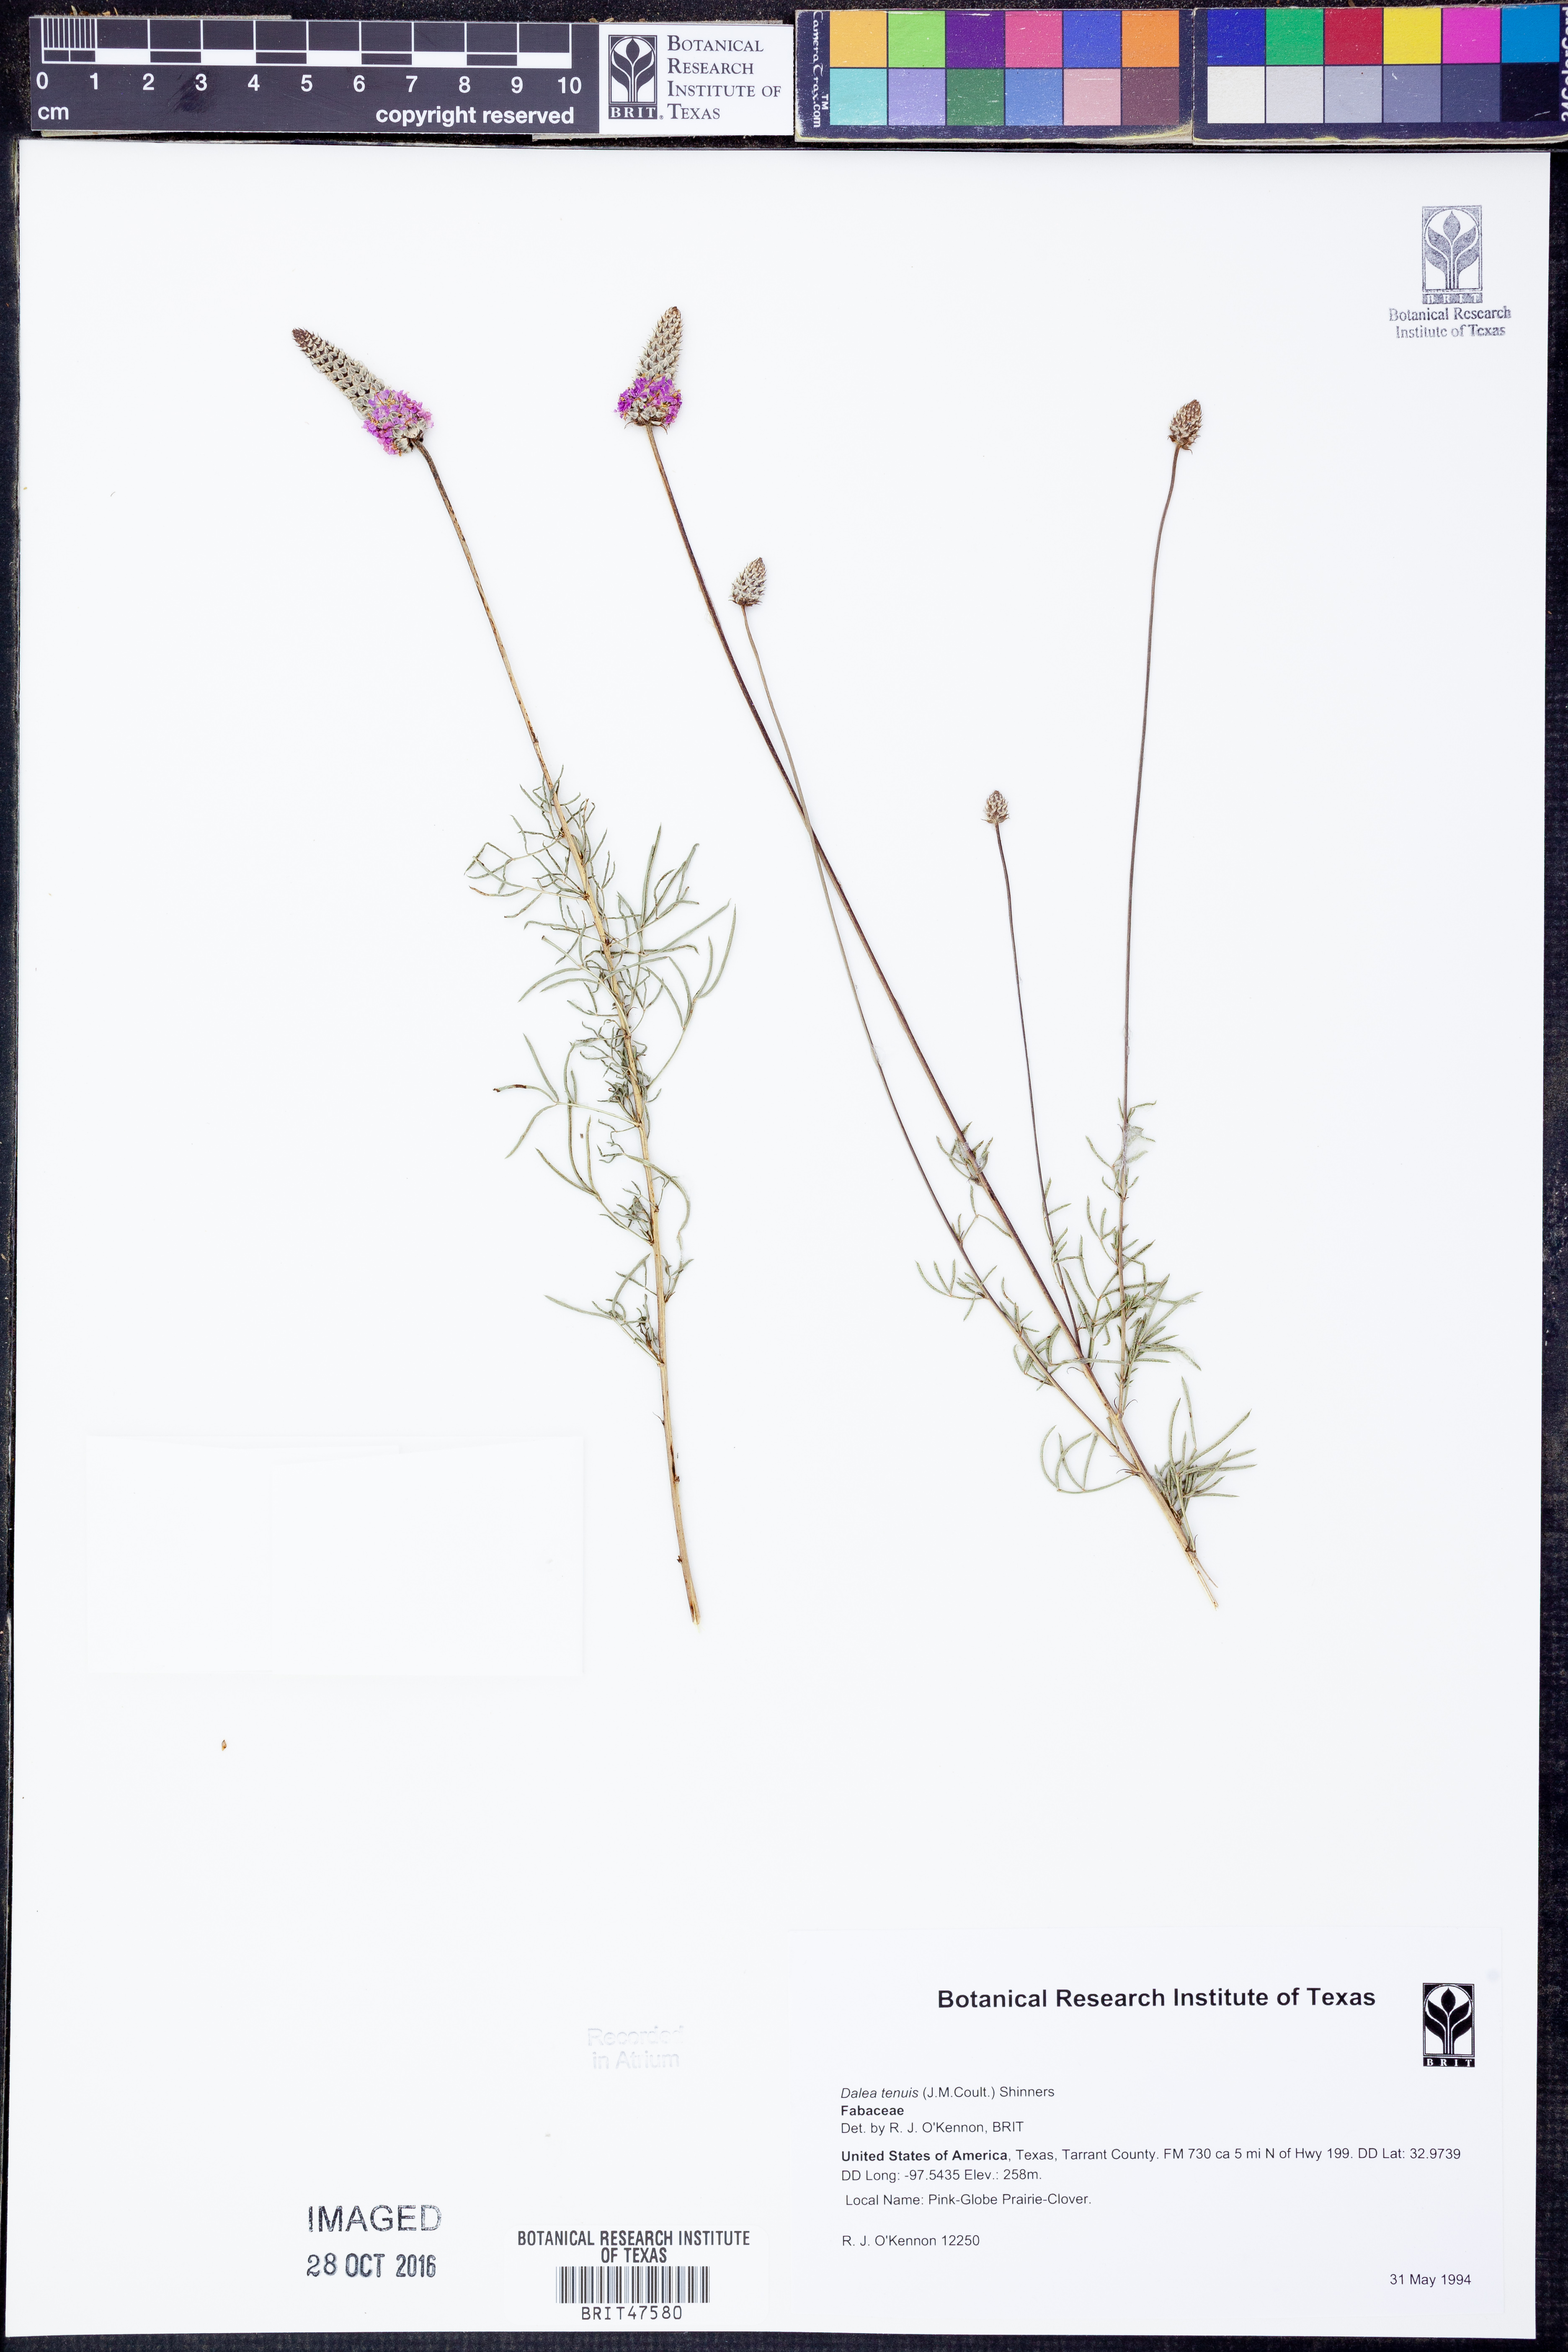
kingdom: Plantae
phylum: Tracheophyta
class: Magnoliopsida
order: Fabales
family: Fabaceae
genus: Dalea
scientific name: Dalea tenuis
